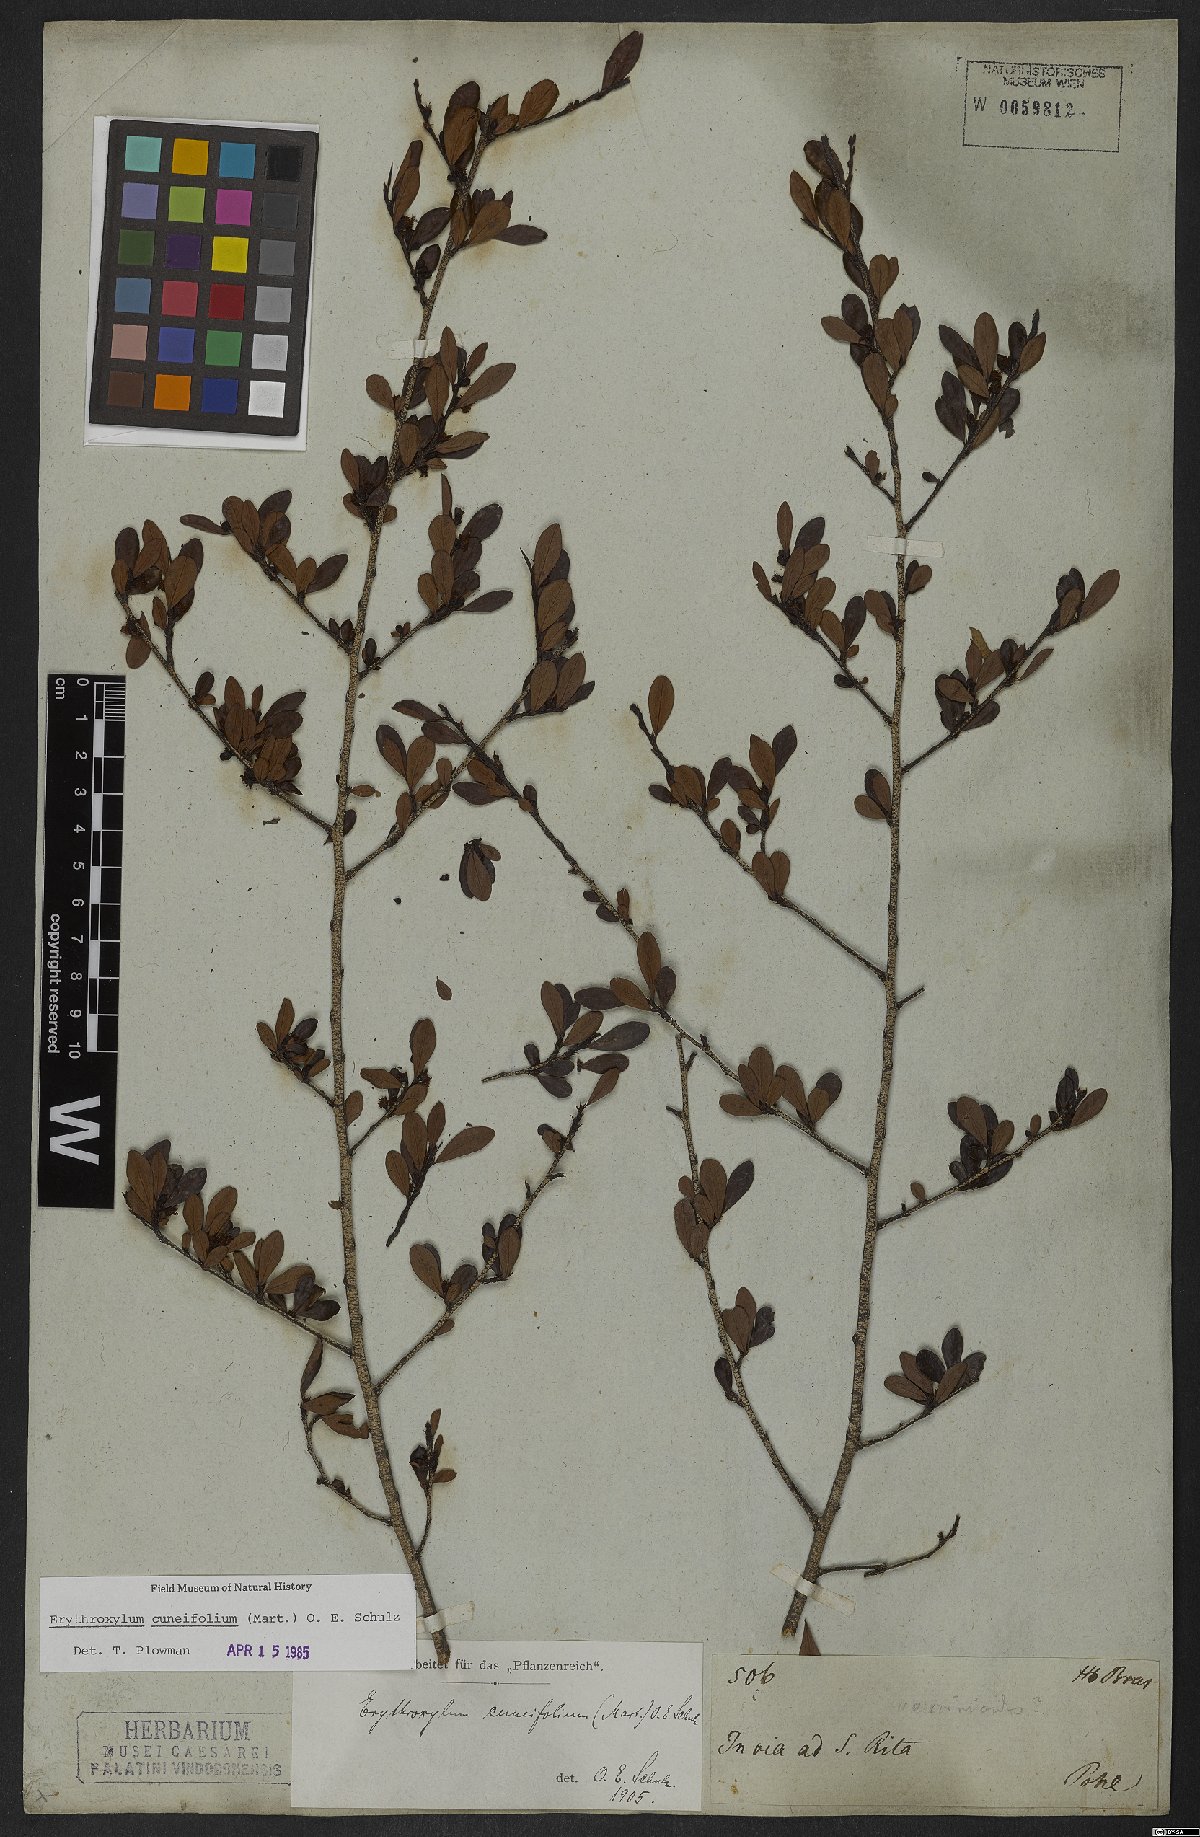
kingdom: Plantae
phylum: Tracheophyta
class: Magnoliopsida
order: Malpighiales
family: Erythroxylaceae
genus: Erythroxylum
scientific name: Erythroxylum cuneifolium
